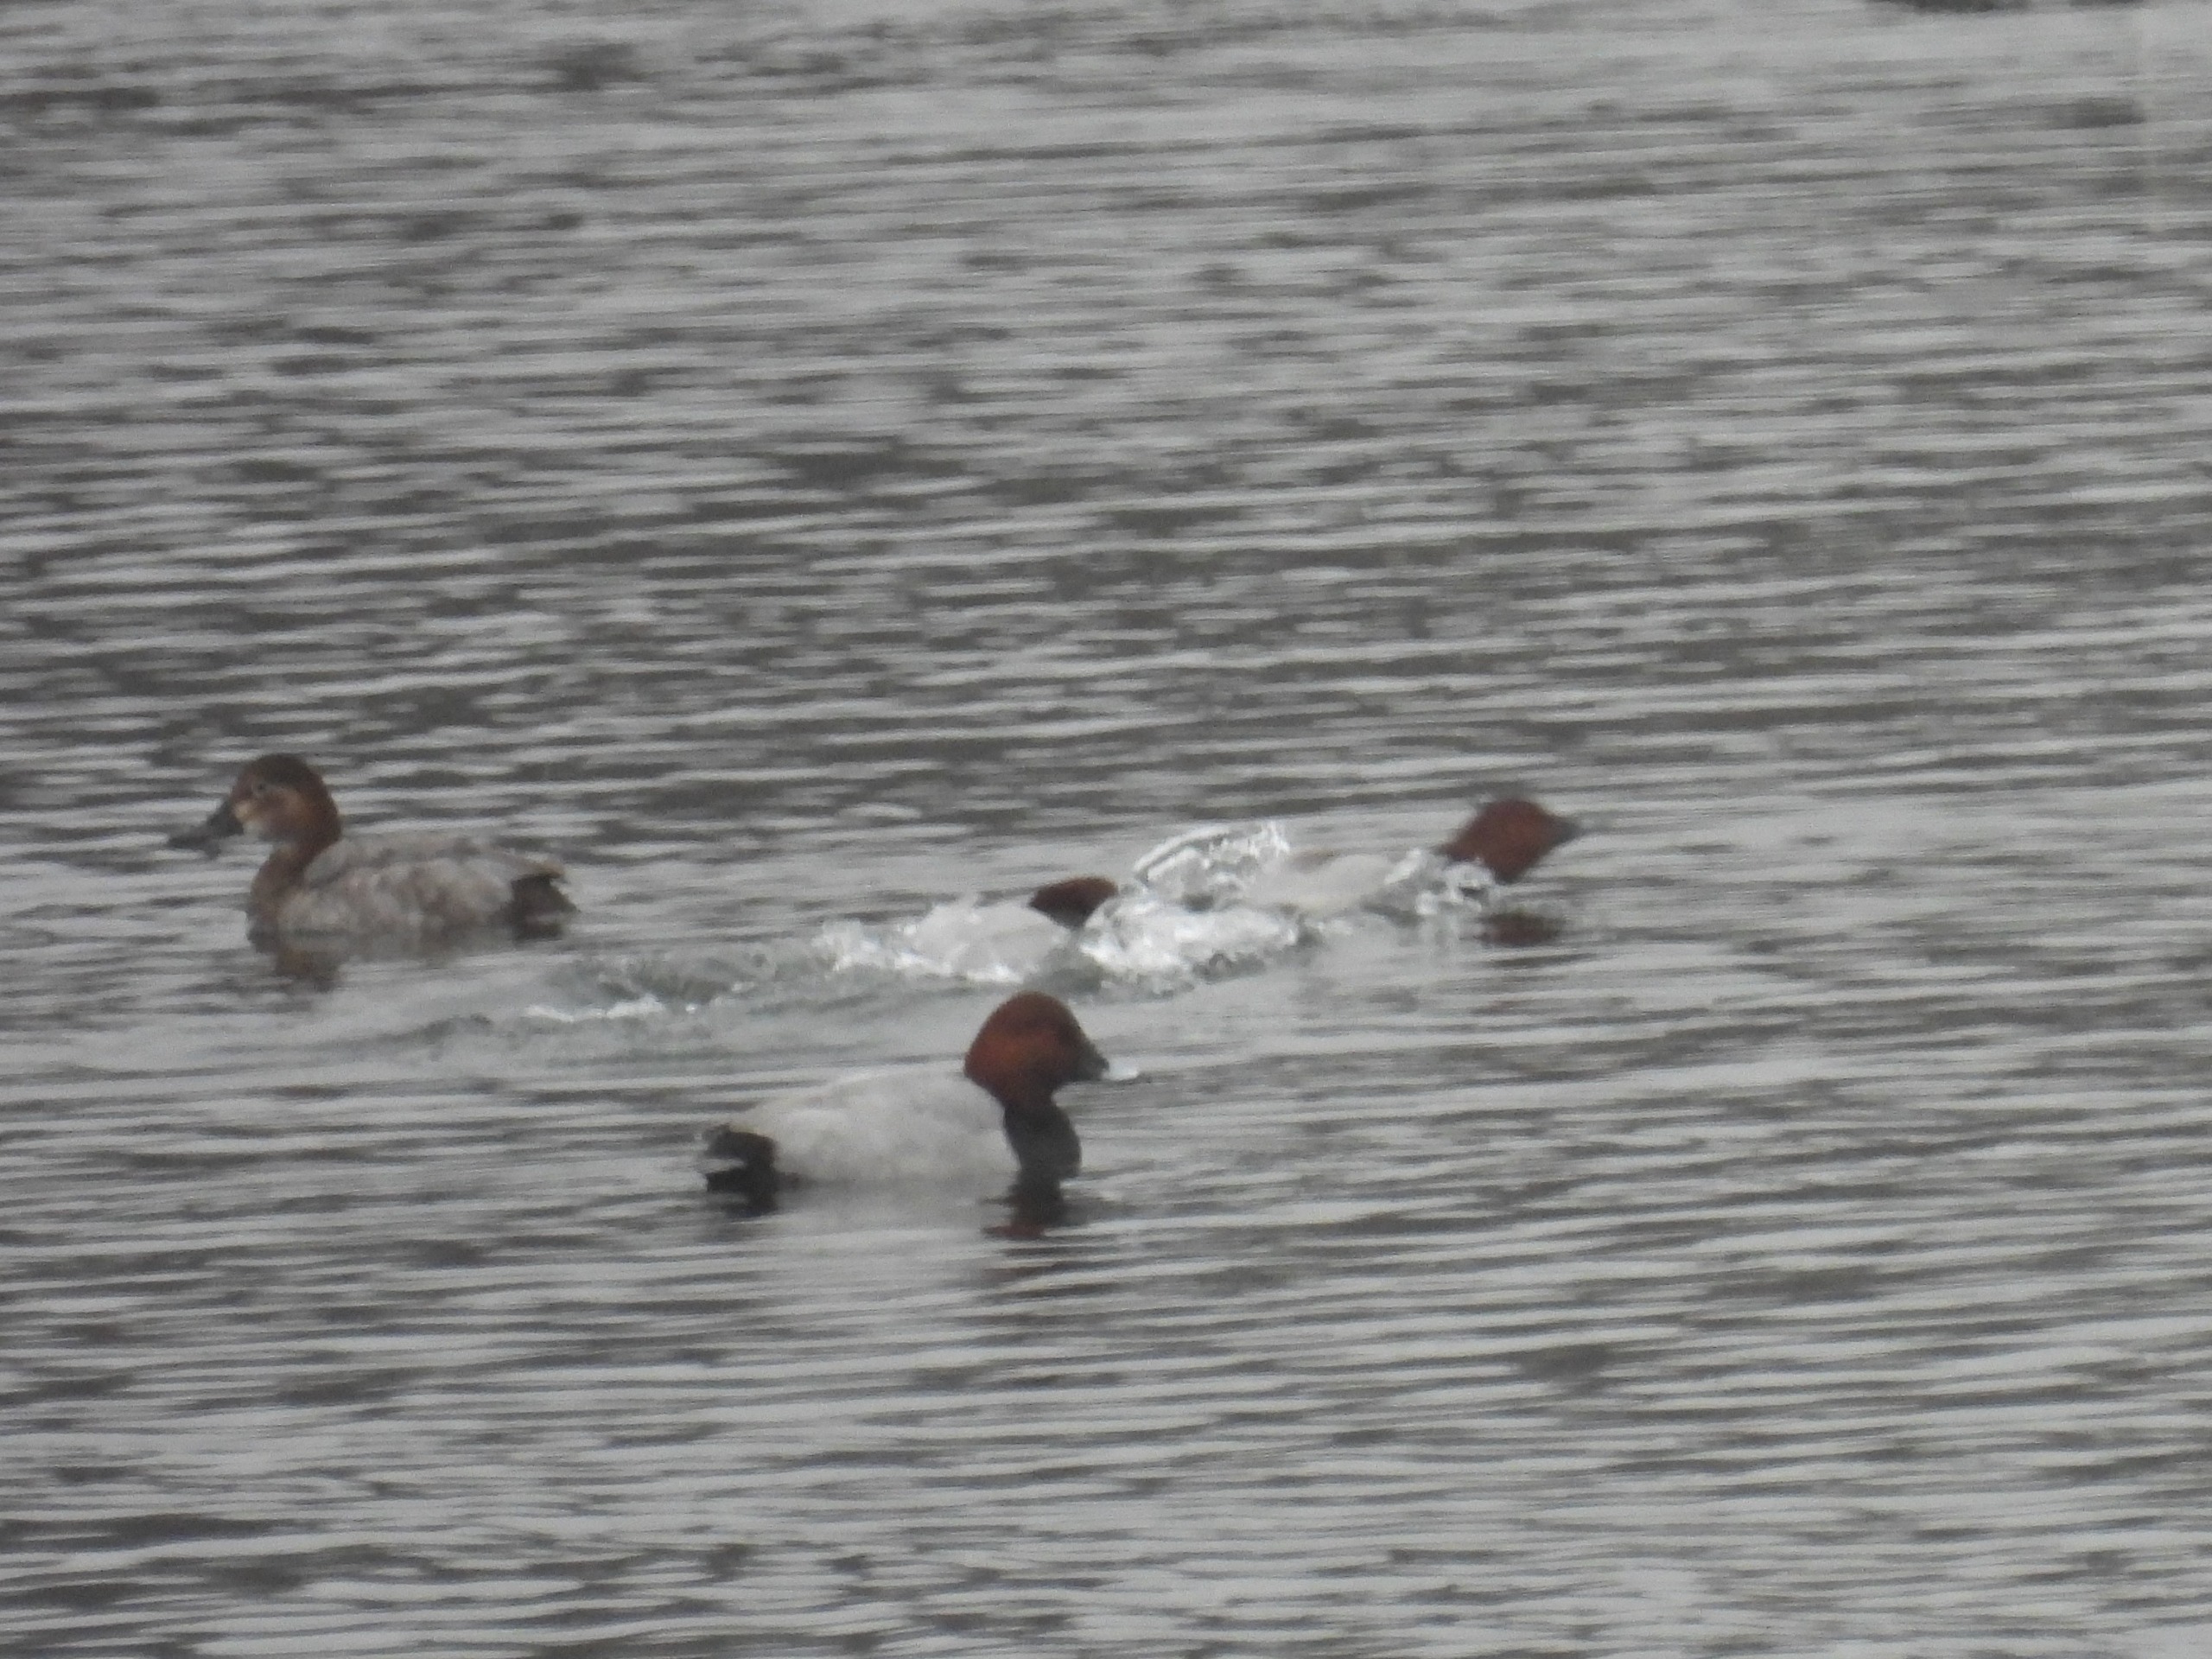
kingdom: Animalia
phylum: Chordata
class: Aves
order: Anseriformes
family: Anatidae
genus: Aythya
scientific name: Aythya ferina
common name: Taffeland
